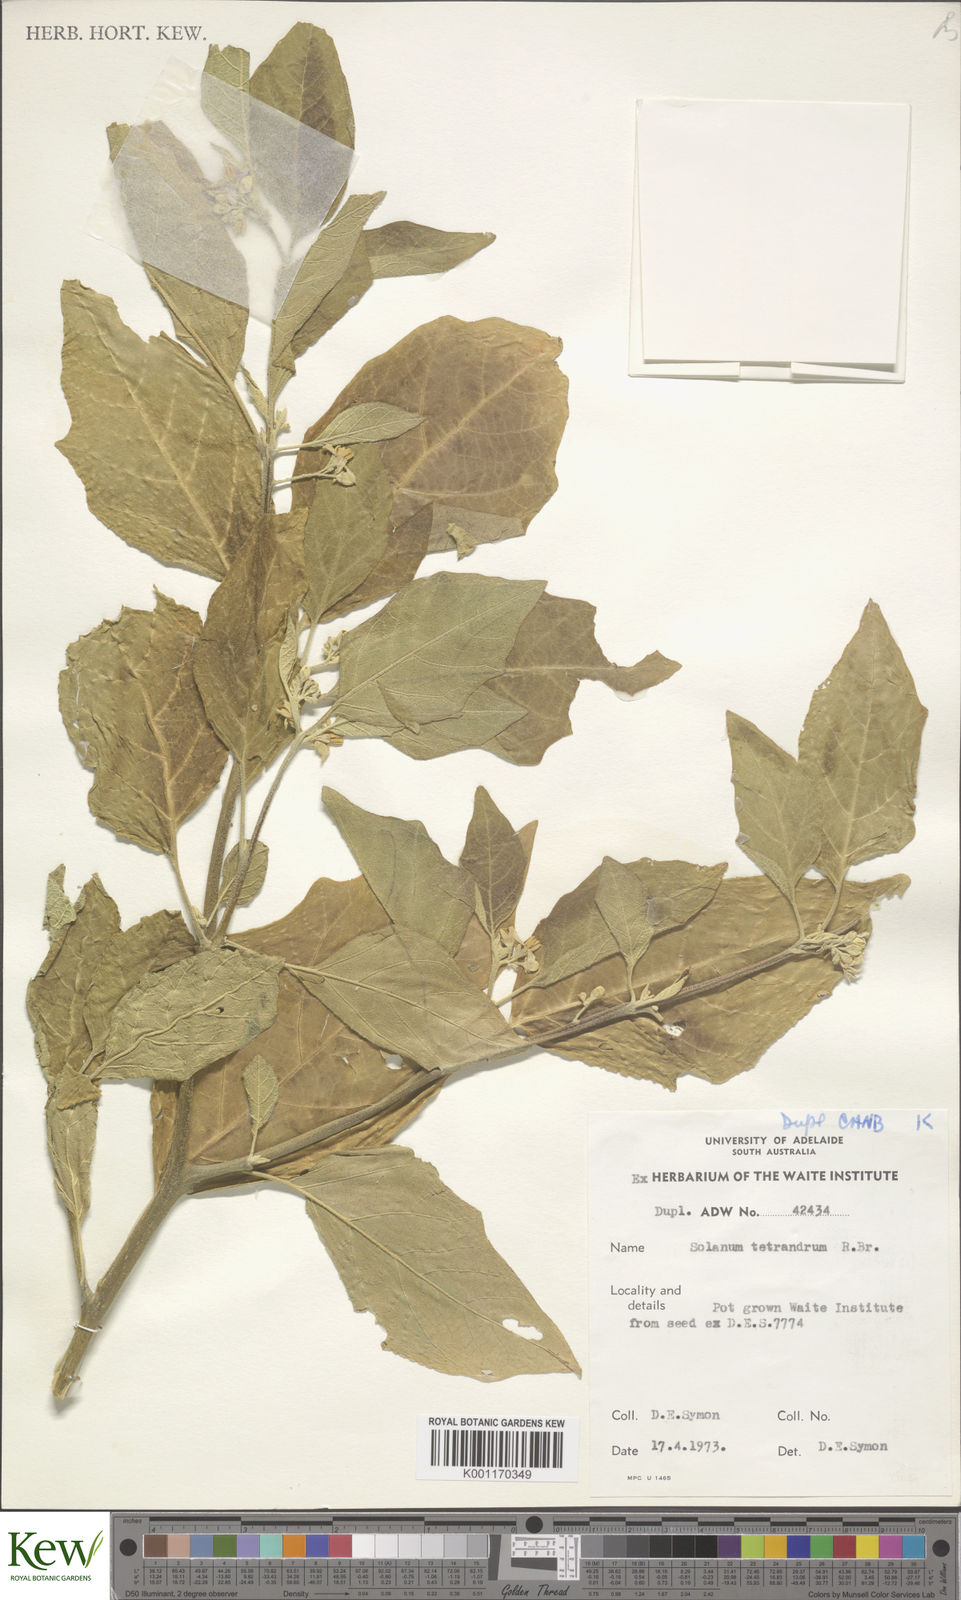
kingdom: Plantae
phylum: Tracheophyta
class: Magnoliopsida
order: Solanales
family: Solanaceae
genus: Solanum
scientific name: Solanum tetrandrum
